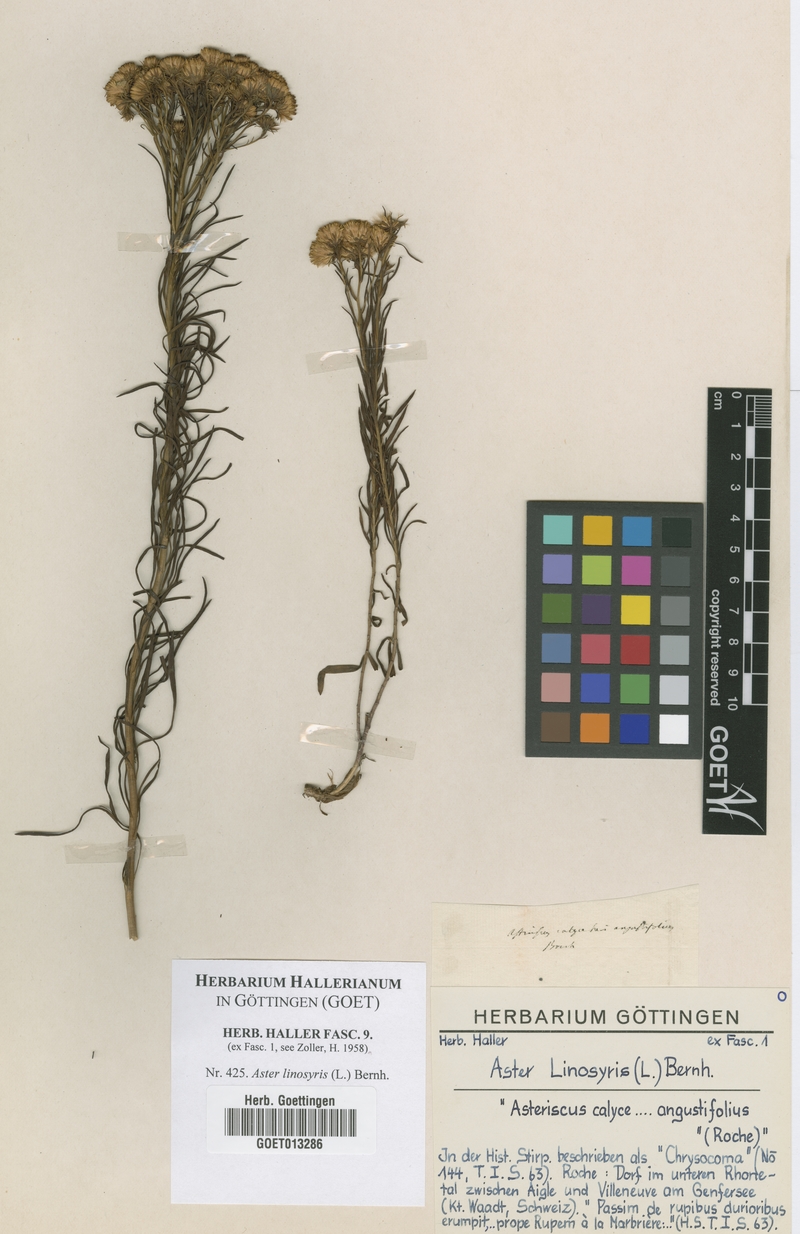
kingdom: Plantae
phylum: Tracheophyta
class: Magnoliopsida
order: Asterales
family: Asteraceae
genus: Galatella
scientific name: Galatella linosyris
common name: Goldilocks aster
